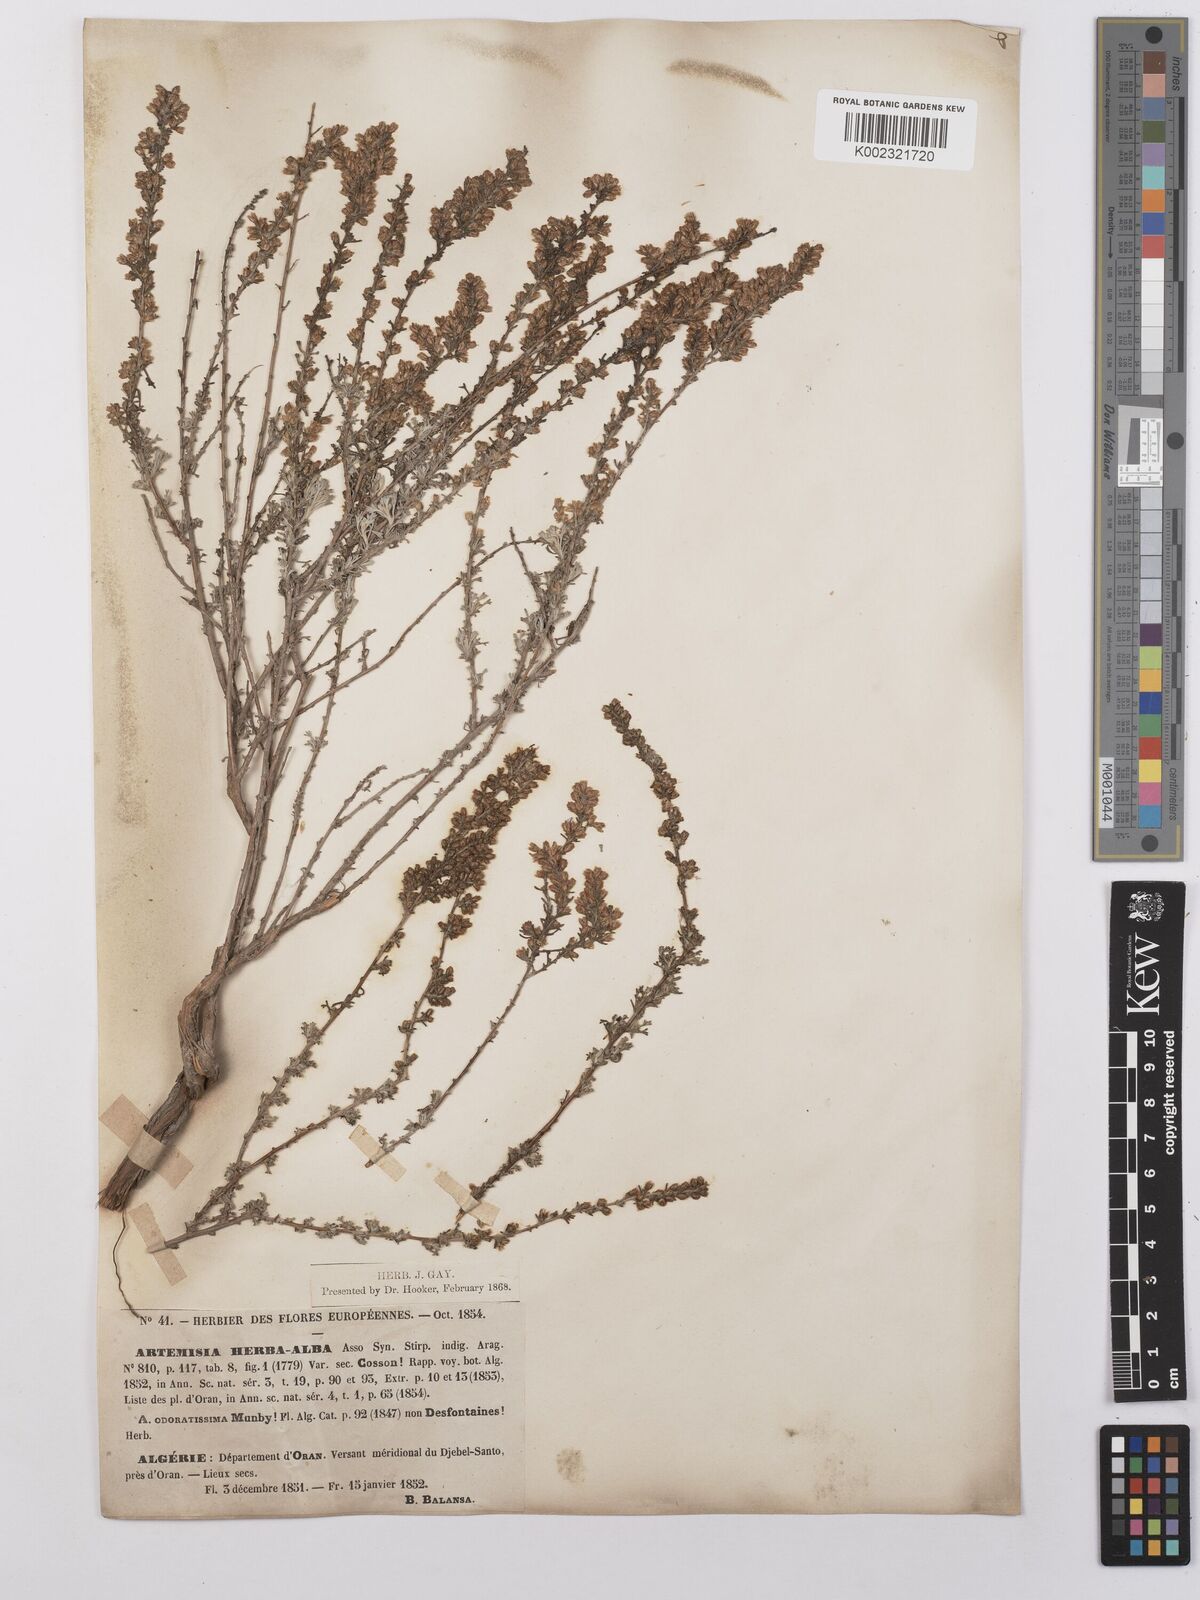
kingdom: Plantae
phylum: Tracheophyta
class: Magnoliopsida
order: Asterales
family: Asteraceae
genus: Artemisia
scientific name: Artemisia herba-alba
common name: White wormwood
